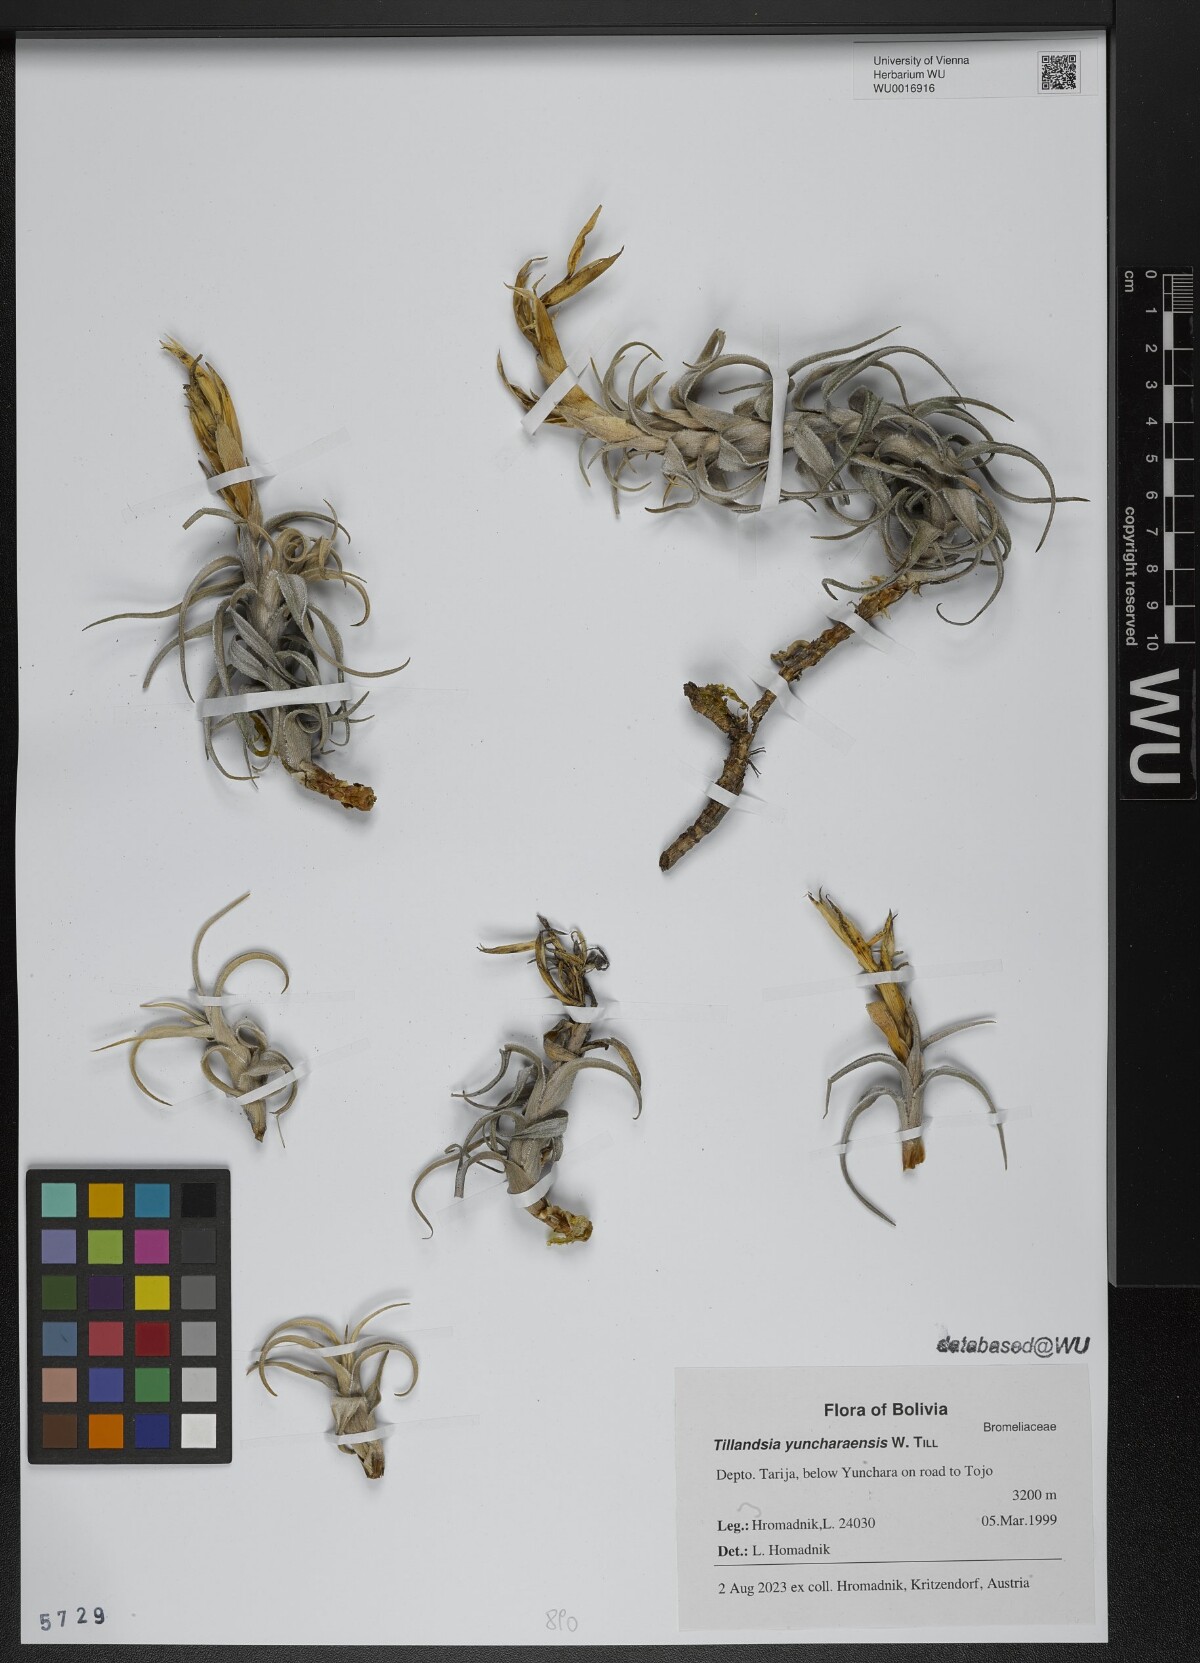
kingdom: Plantae
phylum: Tracheophyta
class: Liliopsida
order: Poales
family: Bromeliaceae
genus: Tillandsia
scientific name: Tillandsia yuncharaensis
